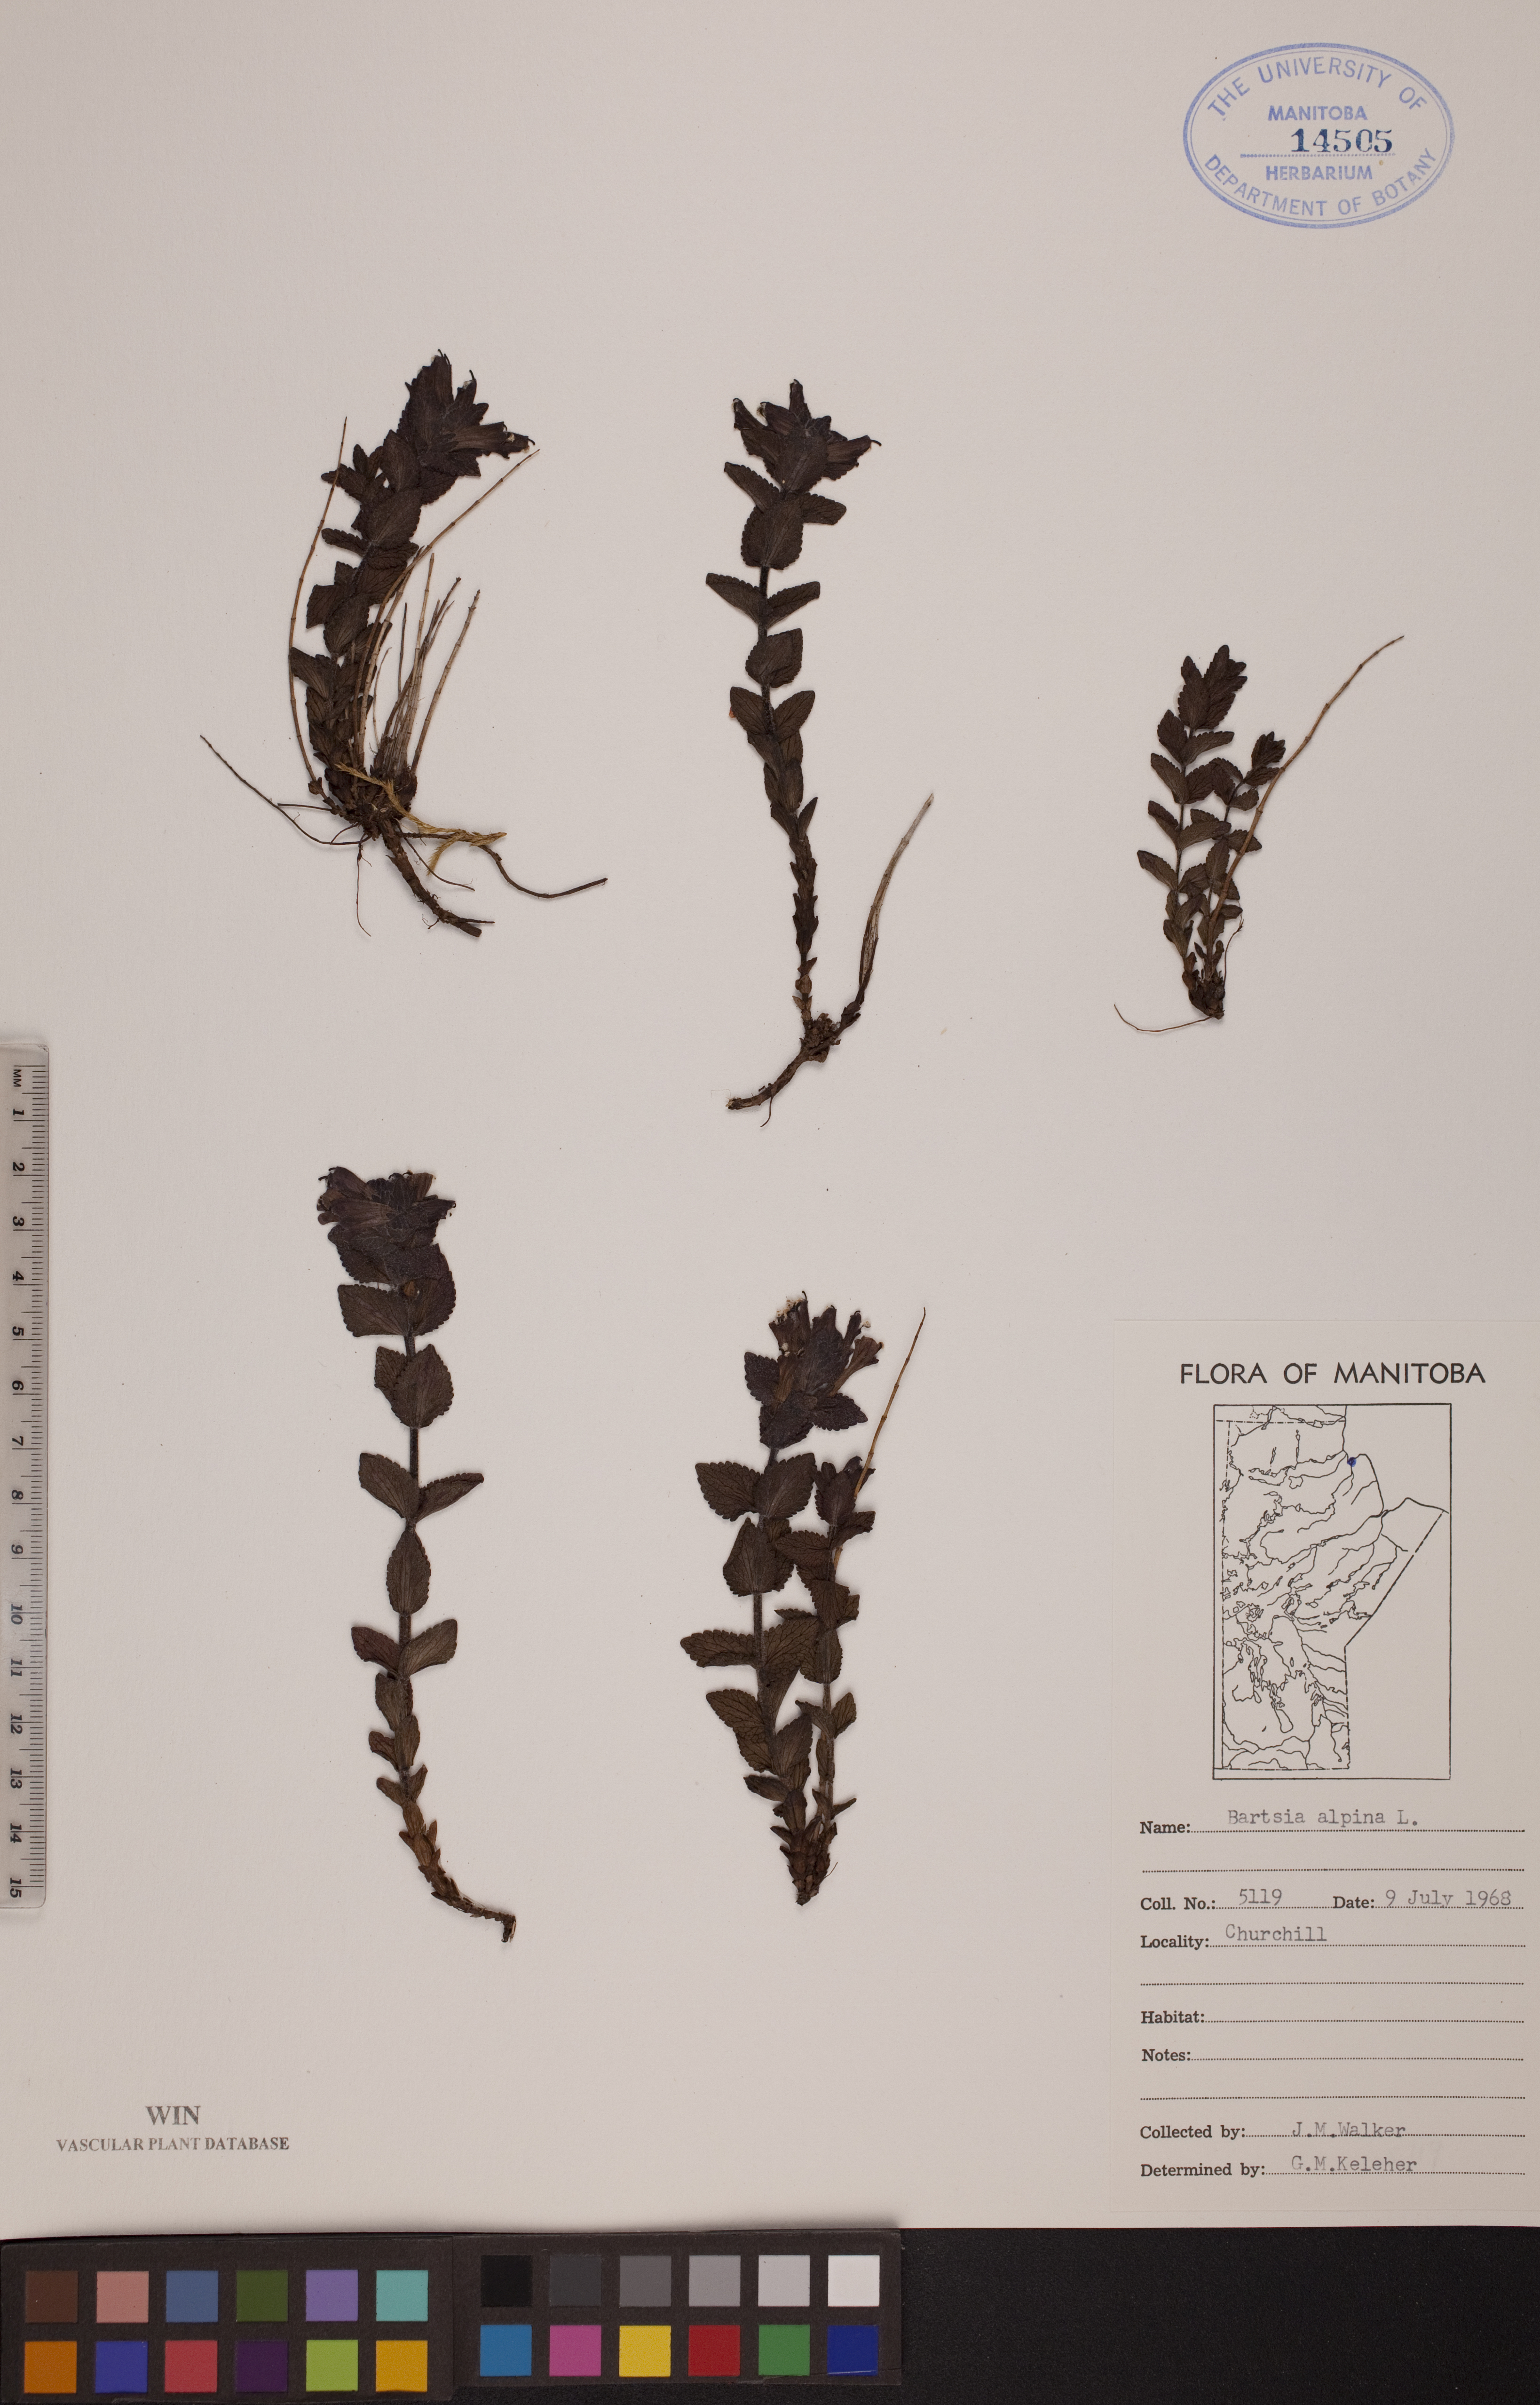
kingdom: Plantae
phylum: Tracheophyta
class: Magnoliopsida
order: Lamiales
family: Orobanchaceae
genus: Bartsia
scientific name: Bartsia alpina
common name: Alpine bartsia
